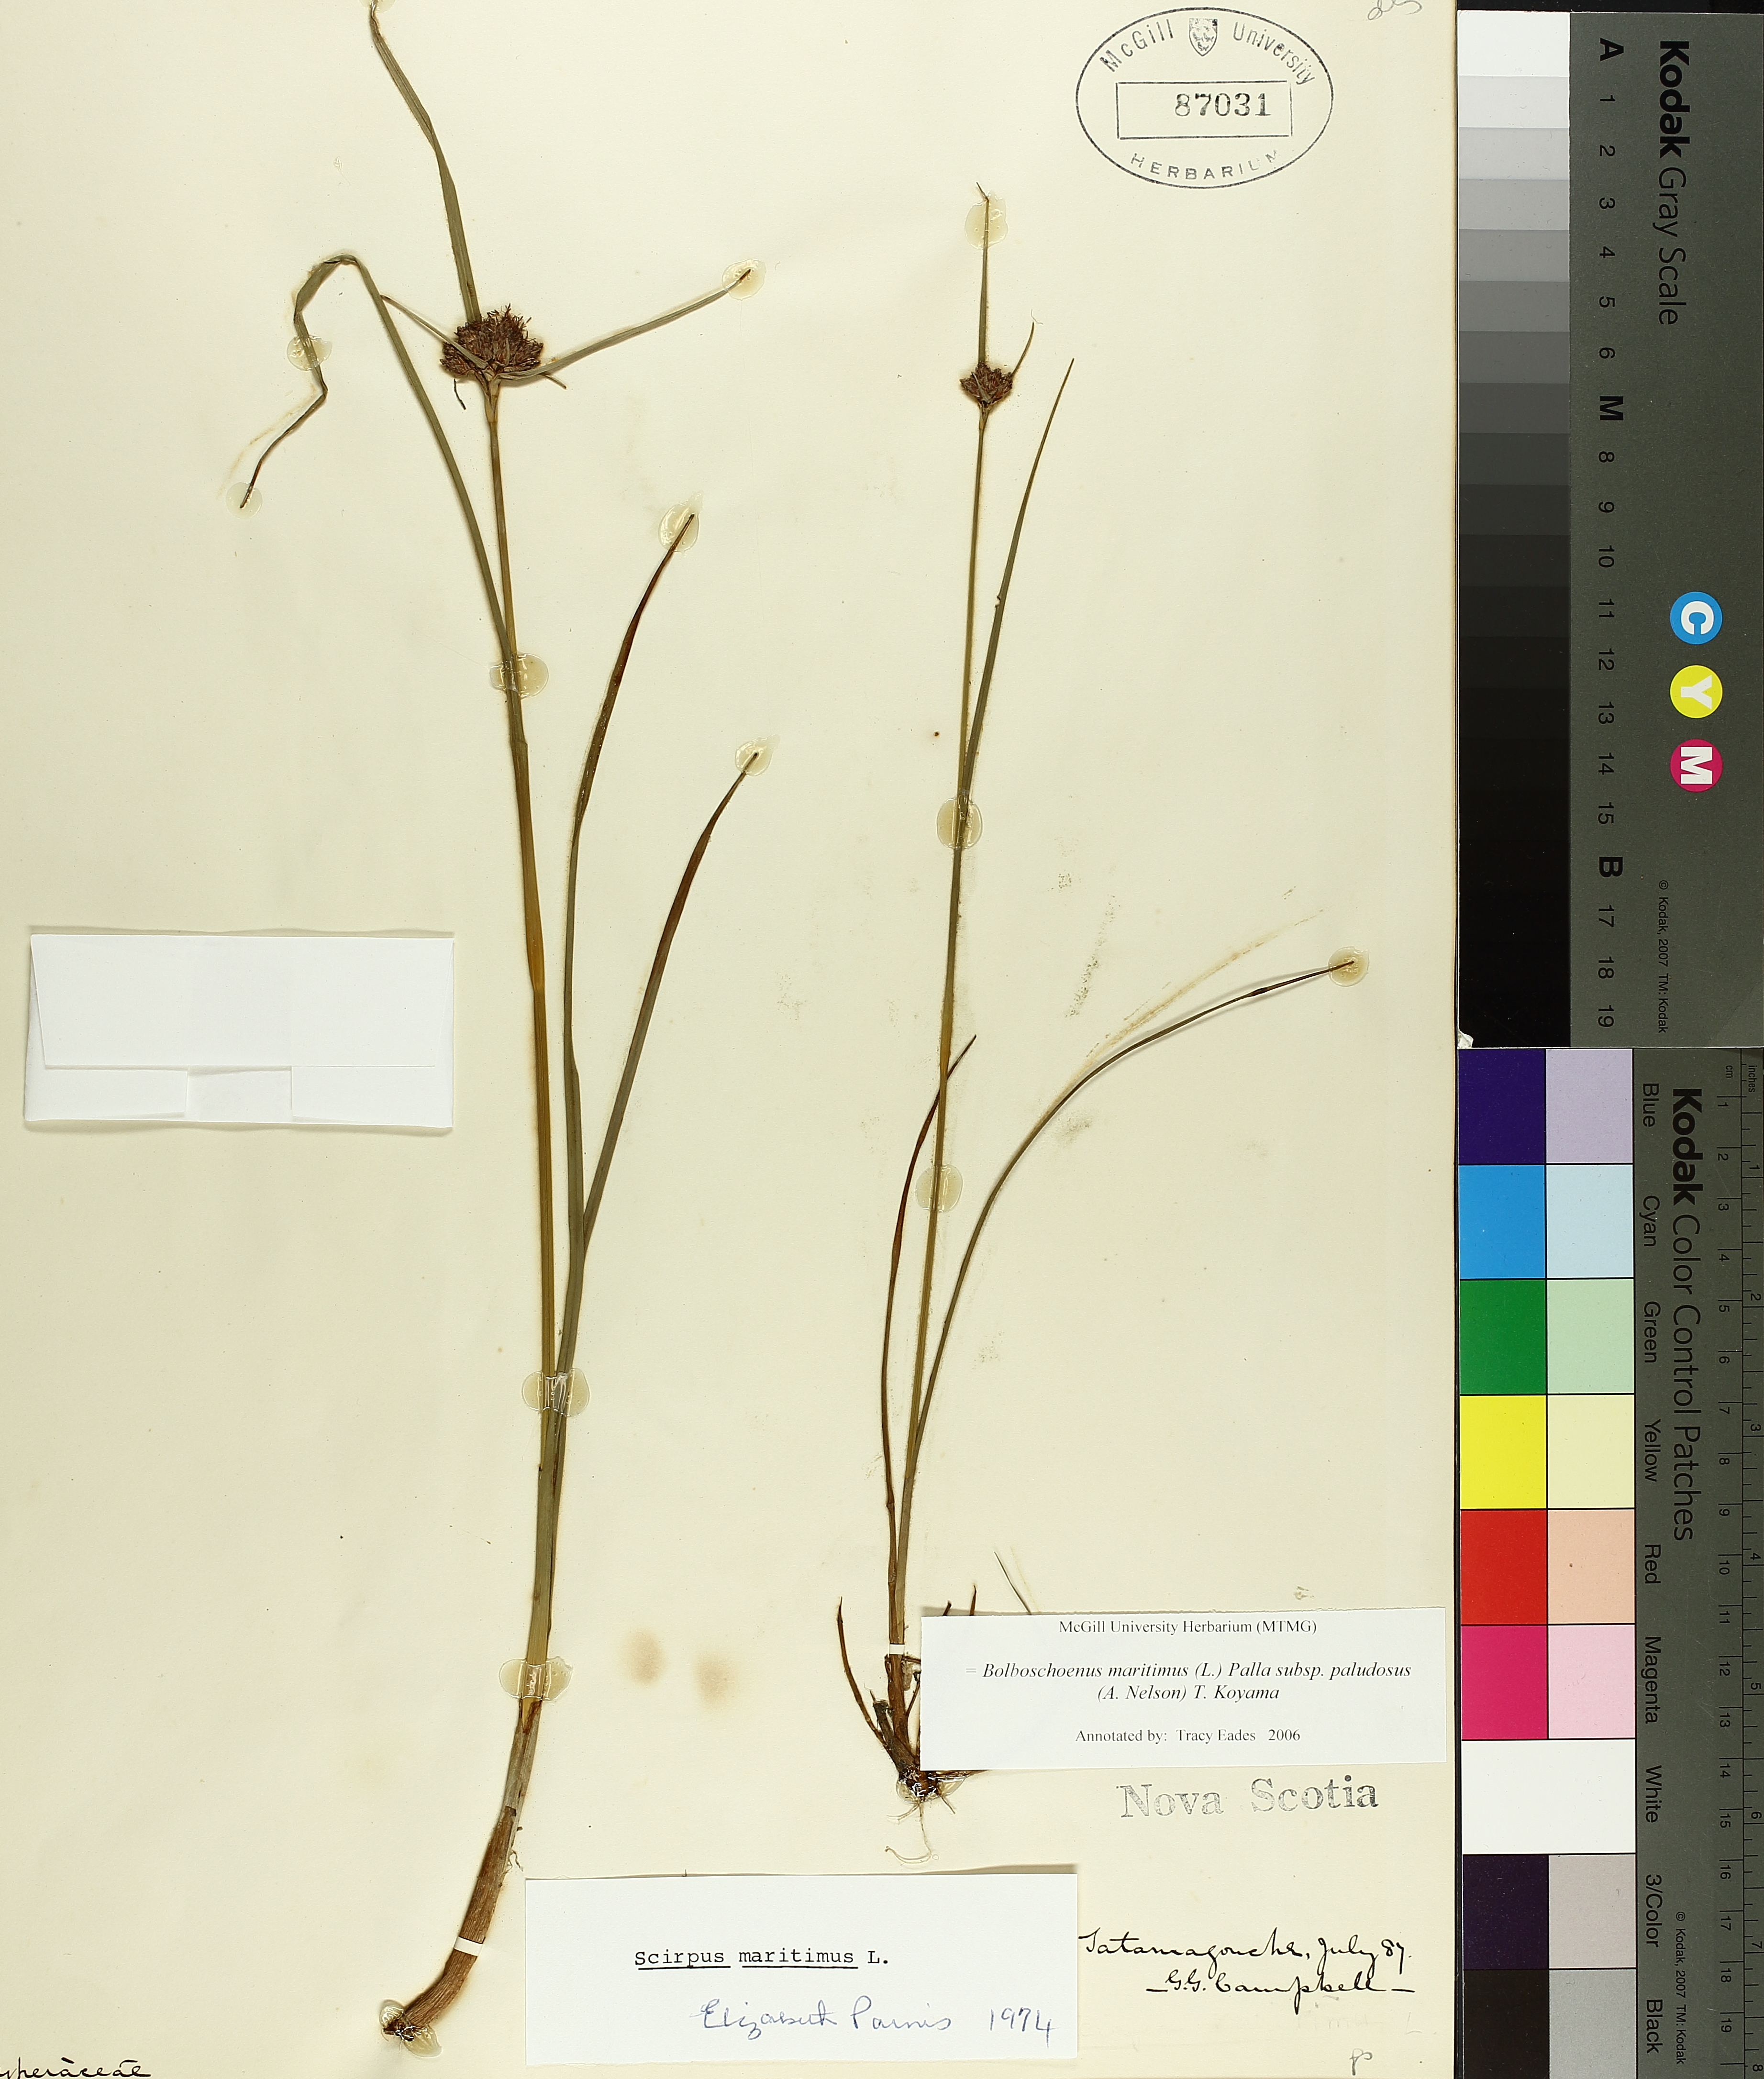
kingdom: Plantae
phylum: Tracheophyta
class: Liliopsida
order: Poales
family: Cyperaceae
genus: Bolboschoenus
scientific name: Bolboschoenus maritimus
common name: Sea club-rush
